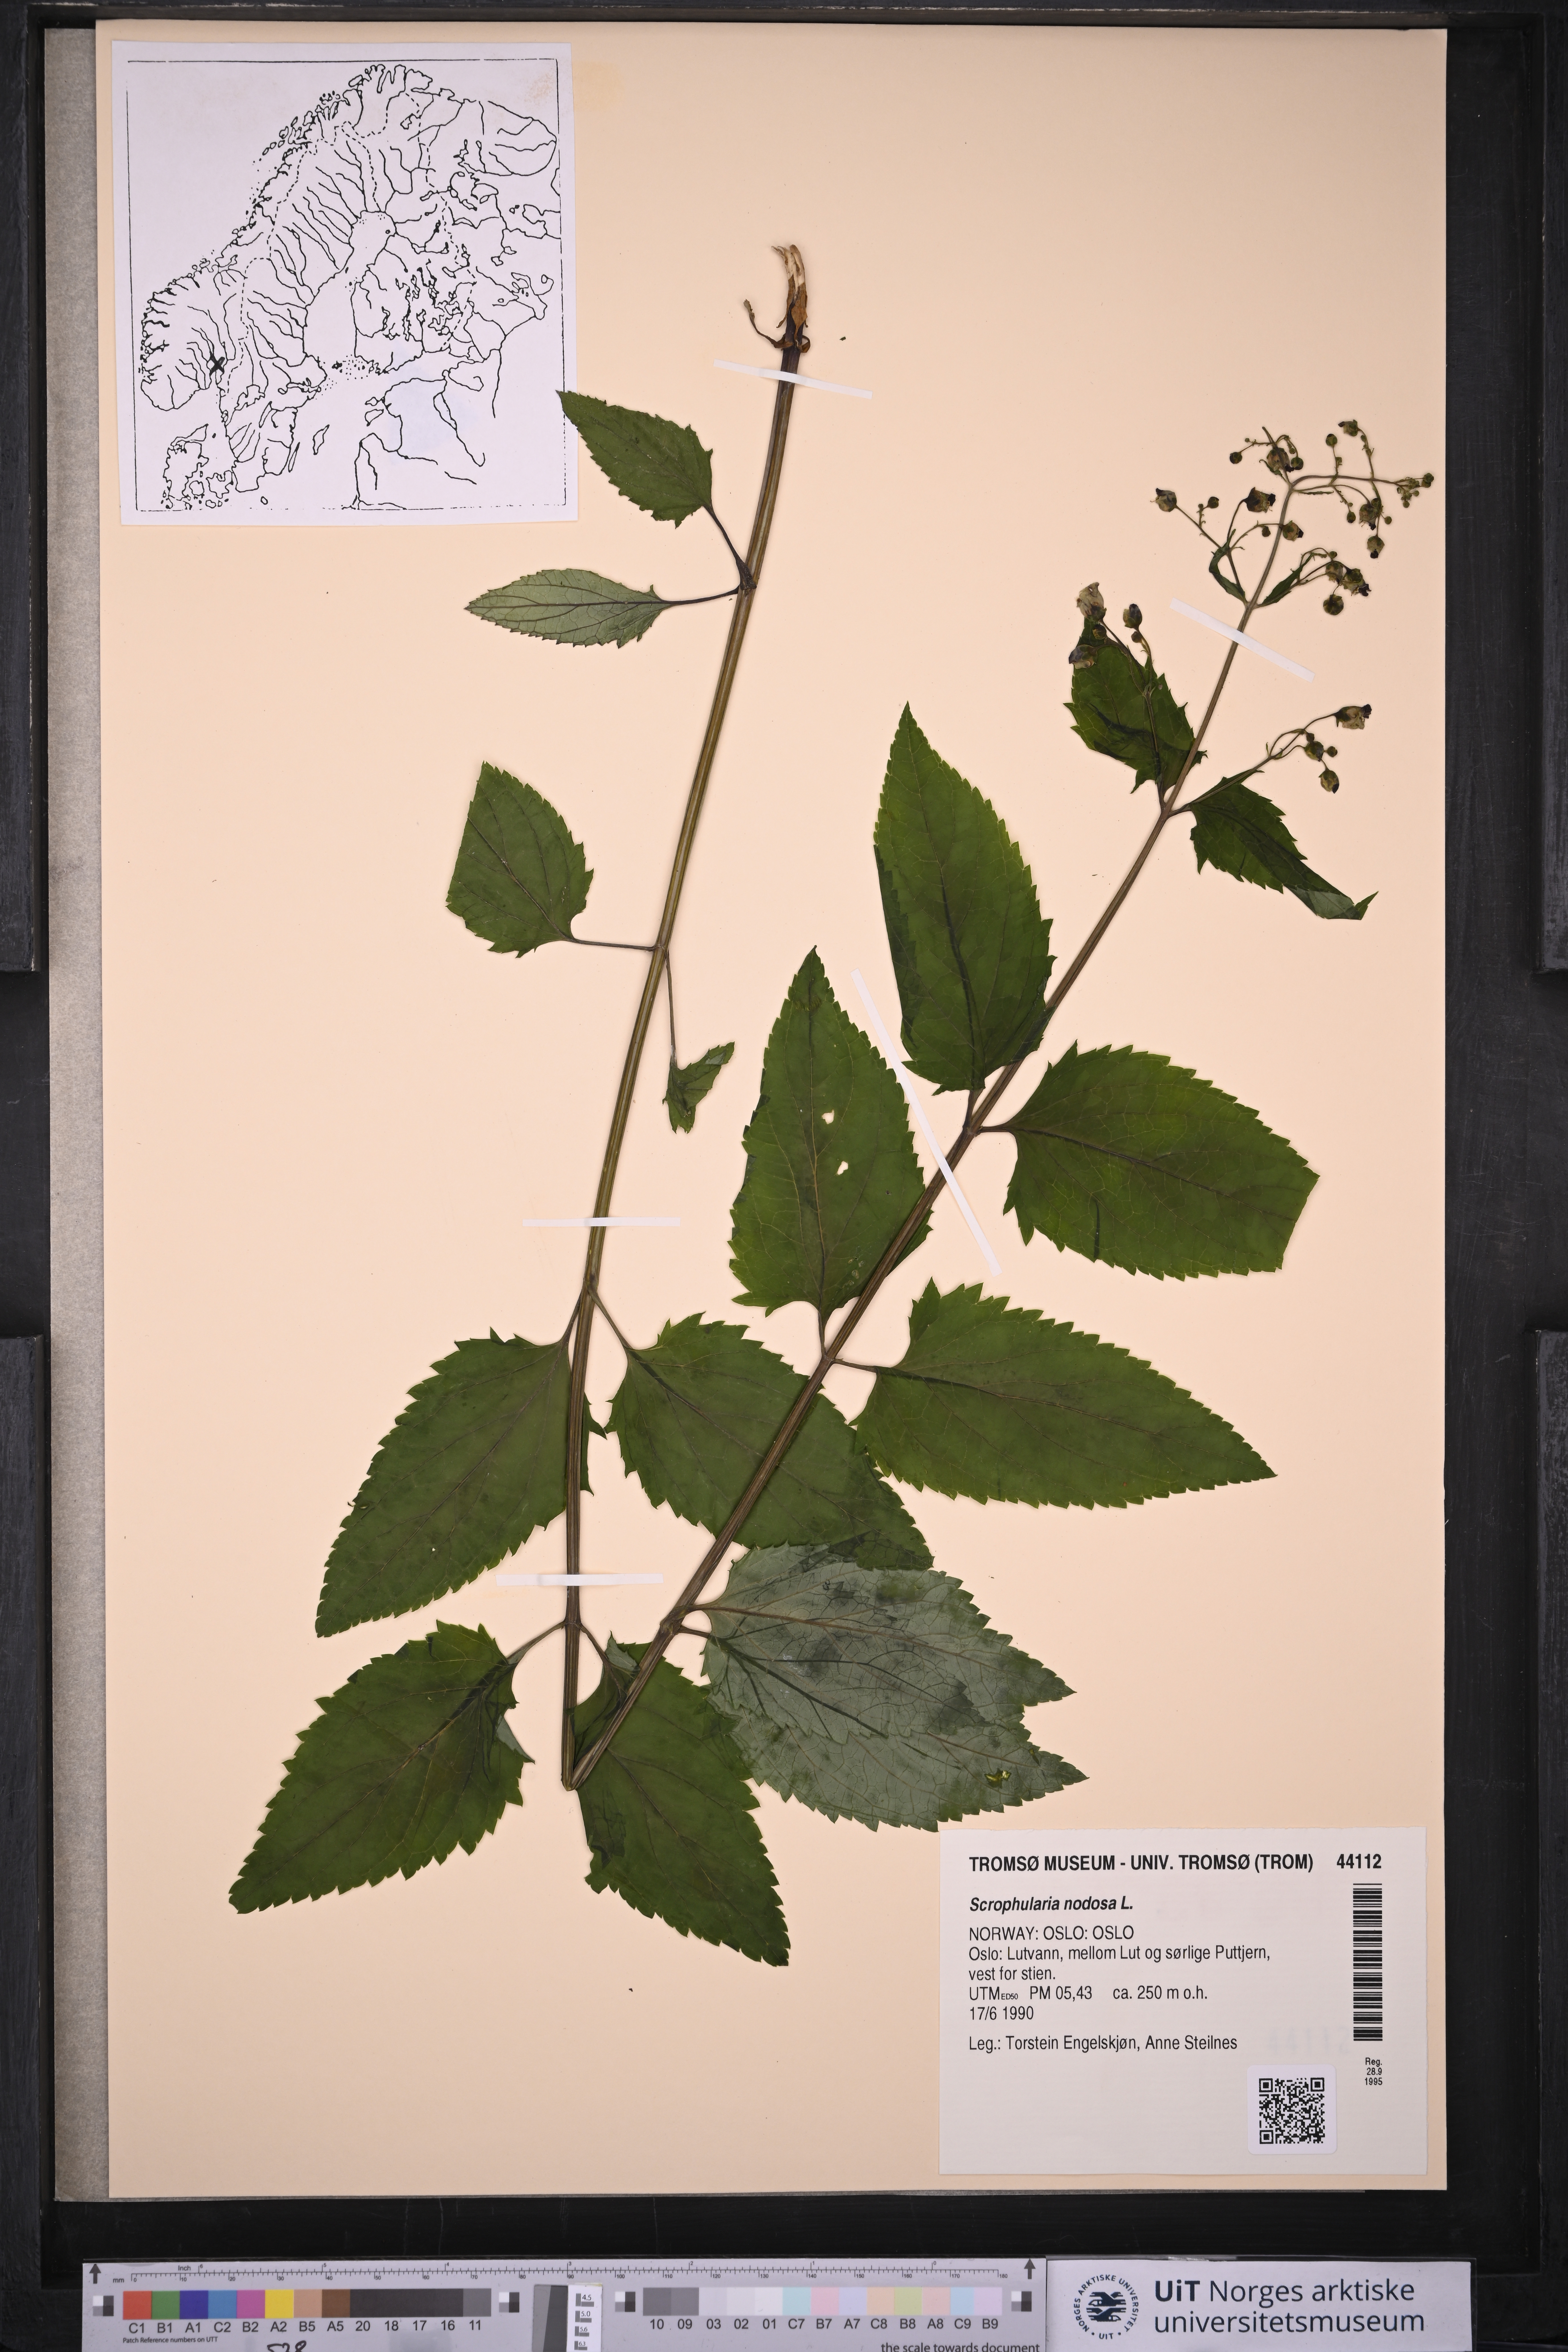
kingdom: Plantae
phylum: Tracheophyta
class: Magnoliopsida
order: Lamiales
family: Scrophulariaceae
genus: Scrophularia
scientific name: Scrophularia nodosa
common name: Common figwort
